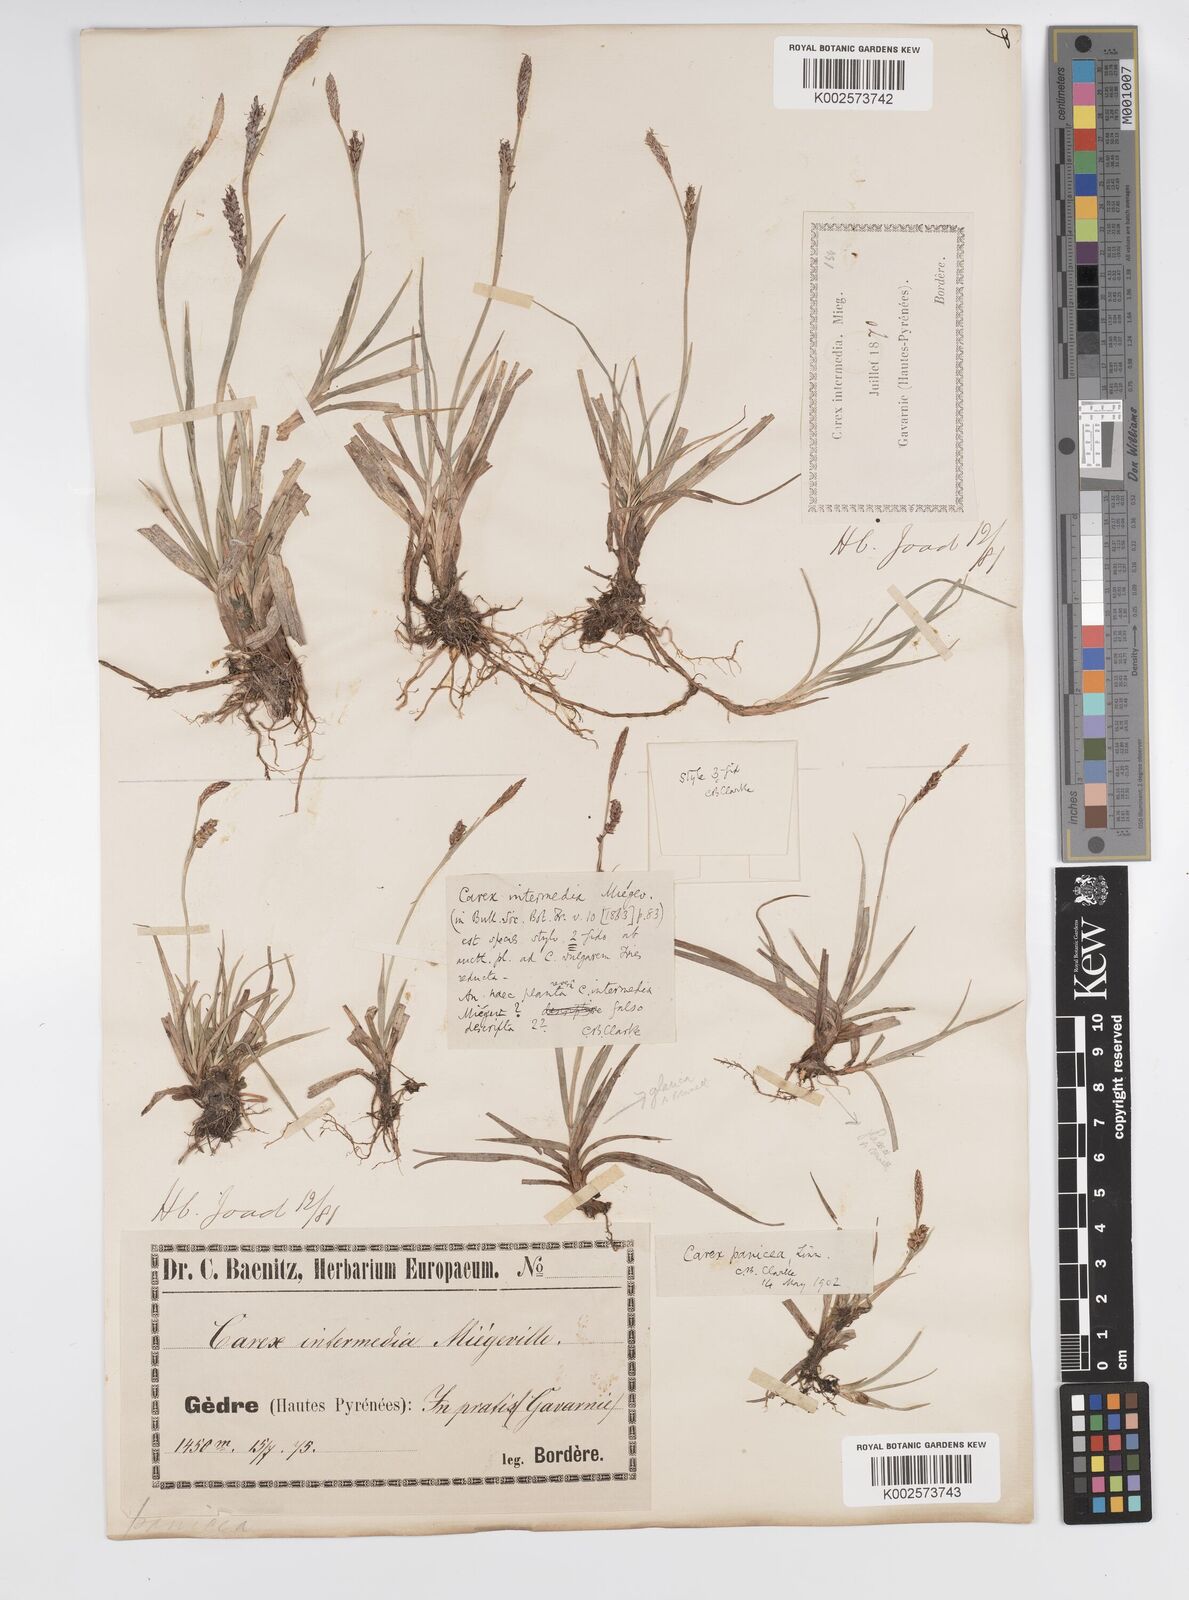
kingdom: Plantae
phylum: Tracheophyta
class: Liliopsida
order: Poales
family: Cyperaceae
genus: Carex
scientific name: Carex panicea
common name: Carnation sedge
